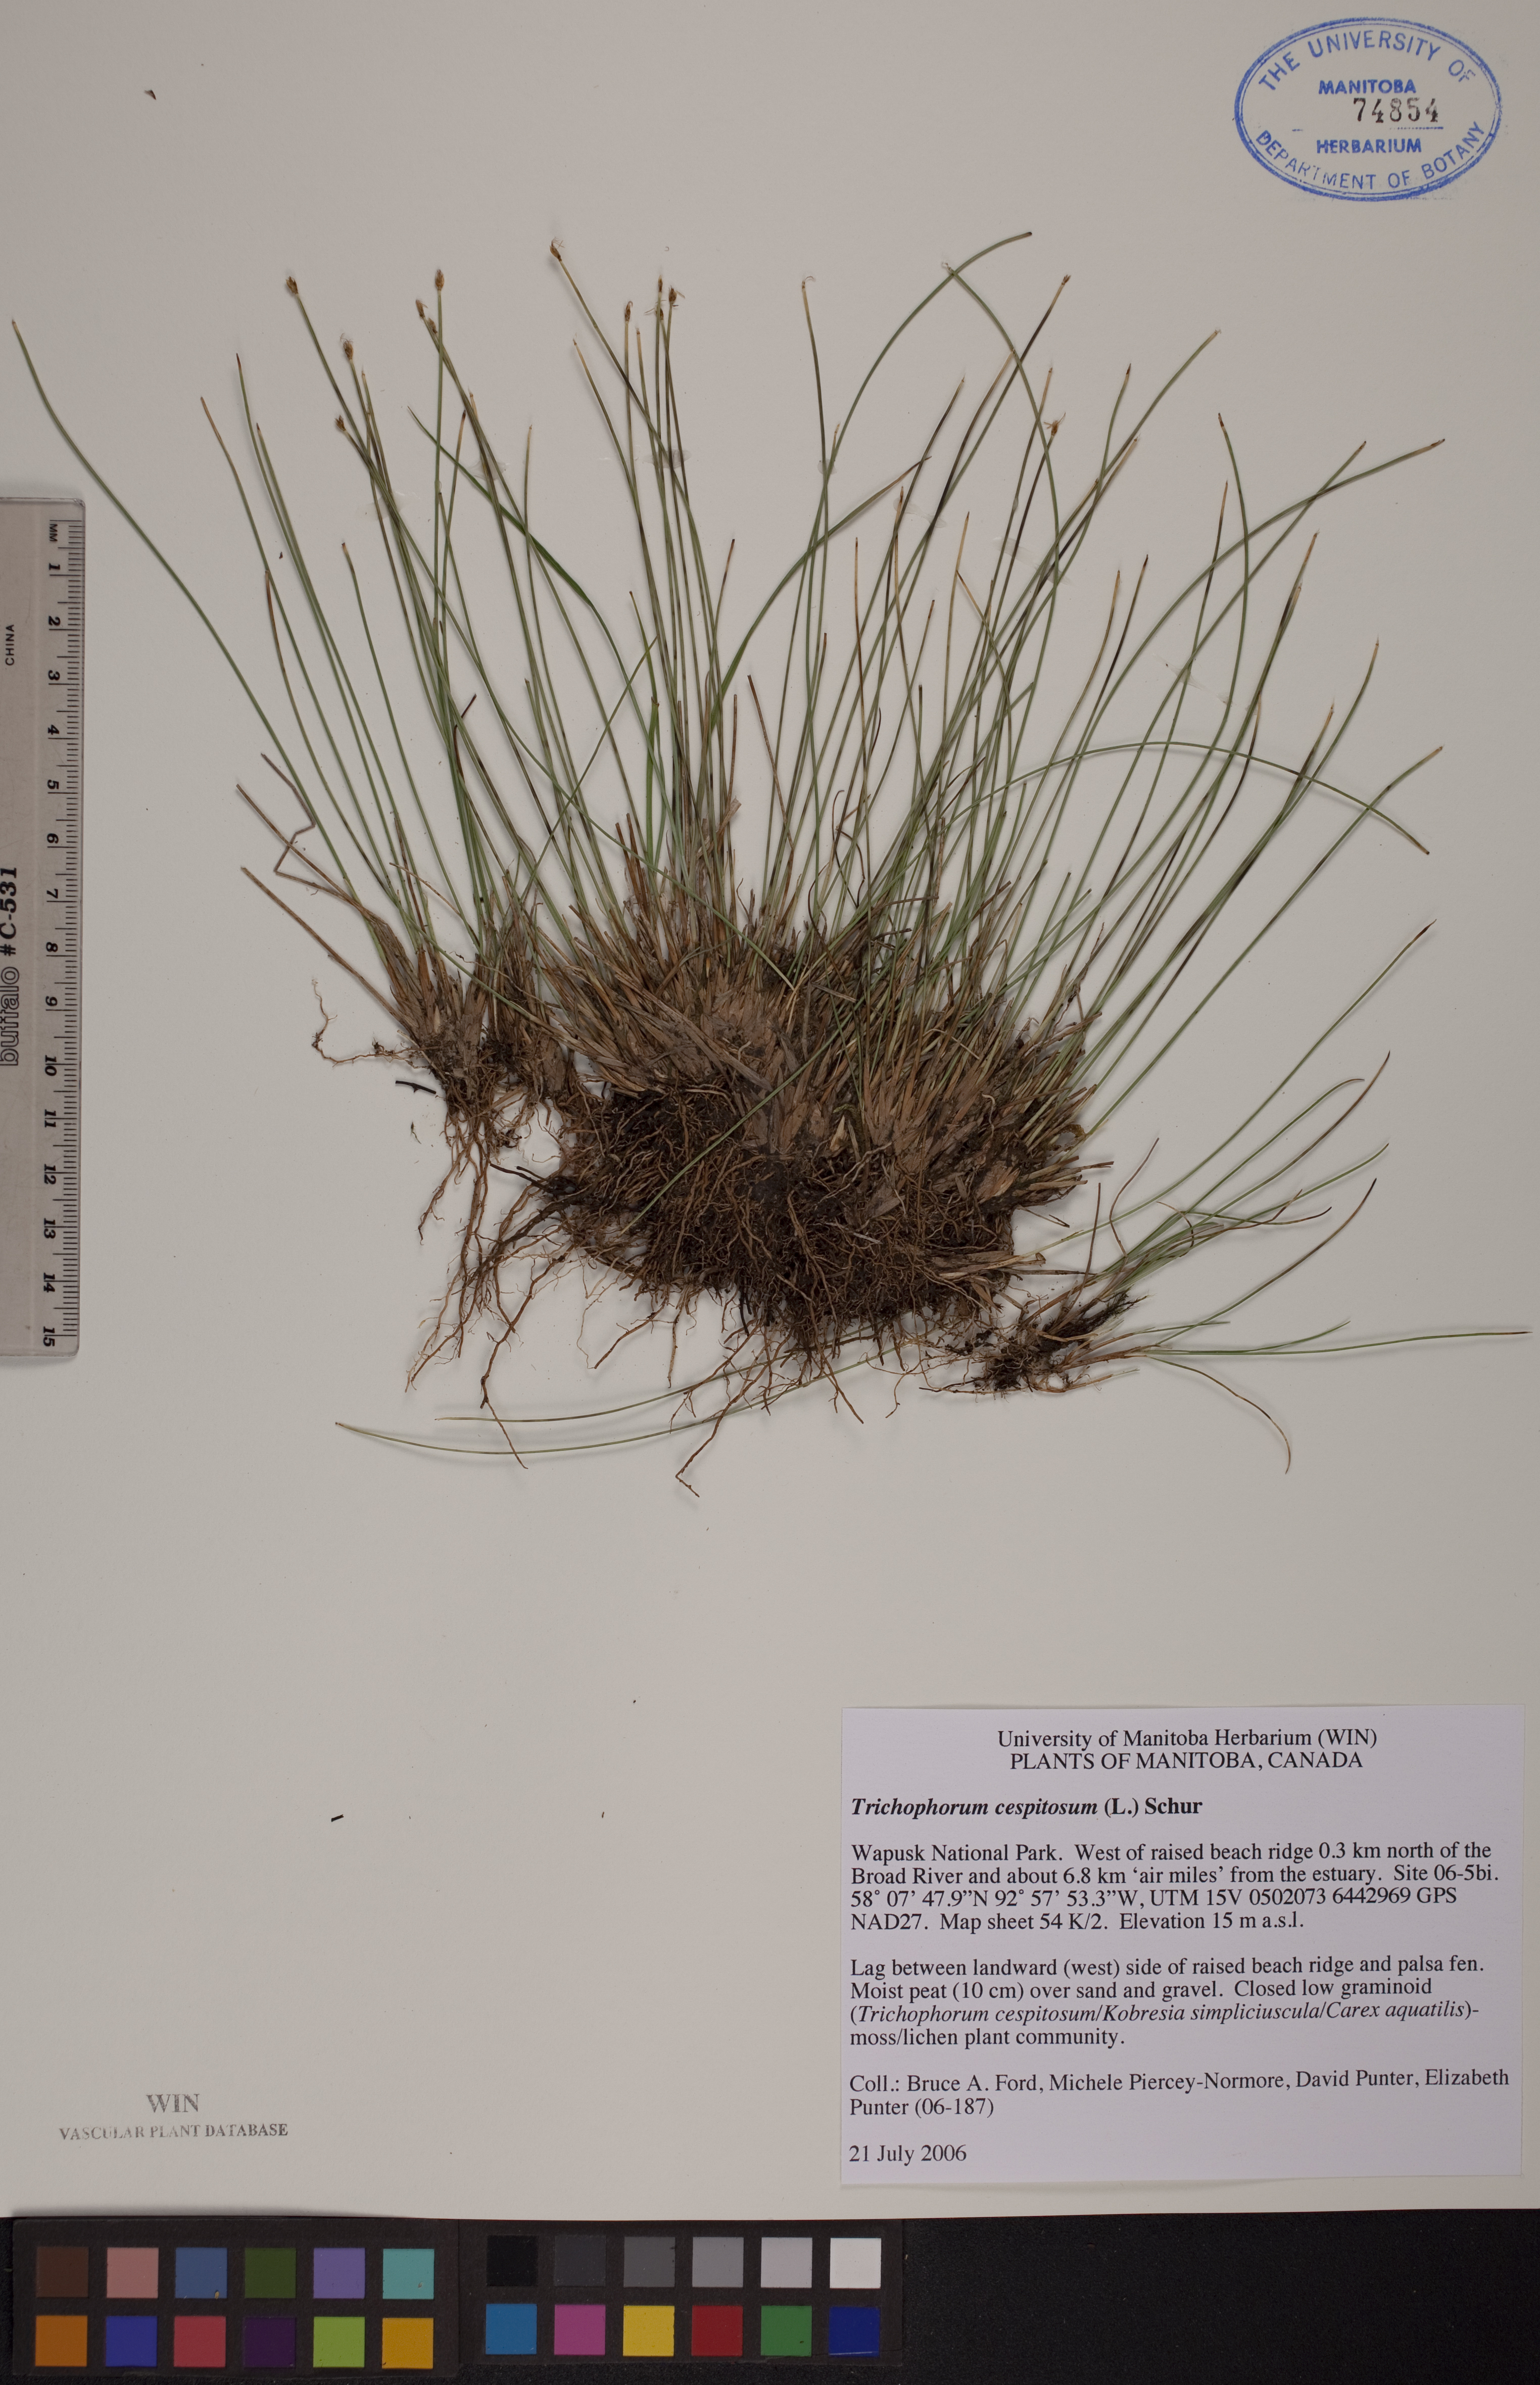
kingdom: Plantae
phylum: Tracheophyta
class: Liliopsida
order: Poales
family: Cyperaceae
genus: Trichophorum
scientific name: Trichophorum cespitosum
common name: Cespitose bulrush
